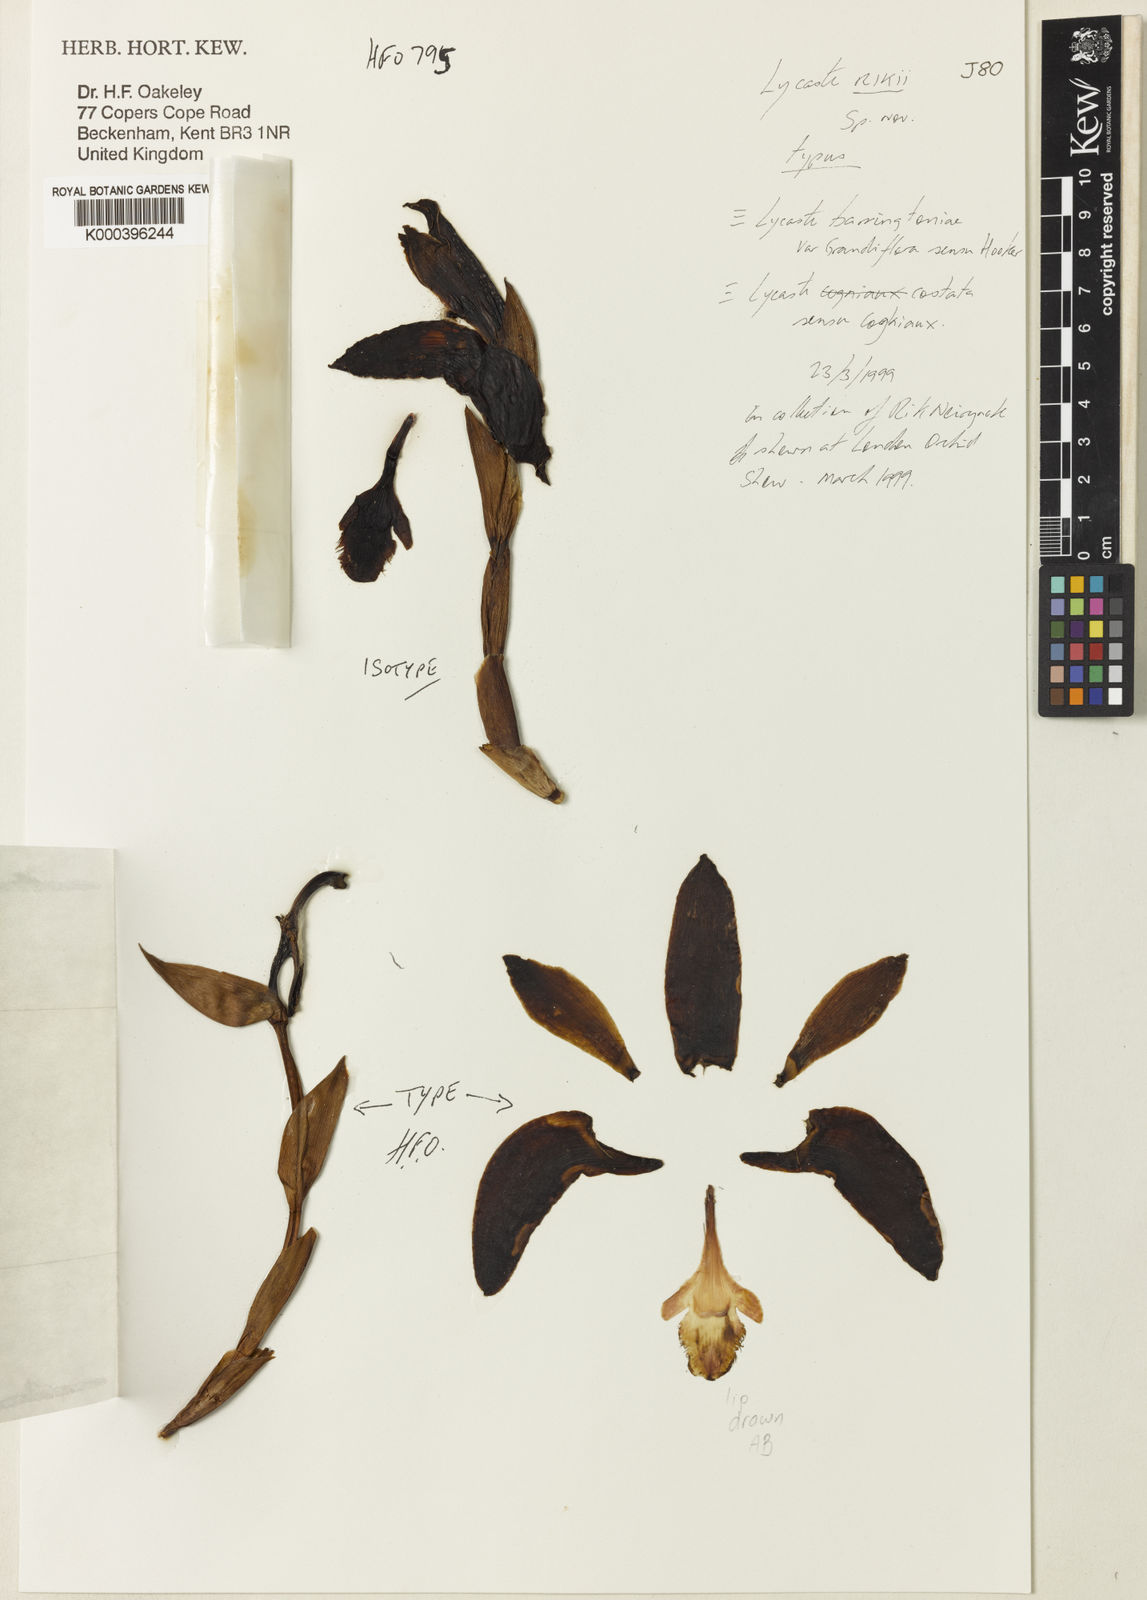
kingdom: Plantae
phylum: Tracheophyta
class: Liliopsida
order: Asparagales
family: Orchidaceae
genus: Ida
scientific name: Ida rikii
